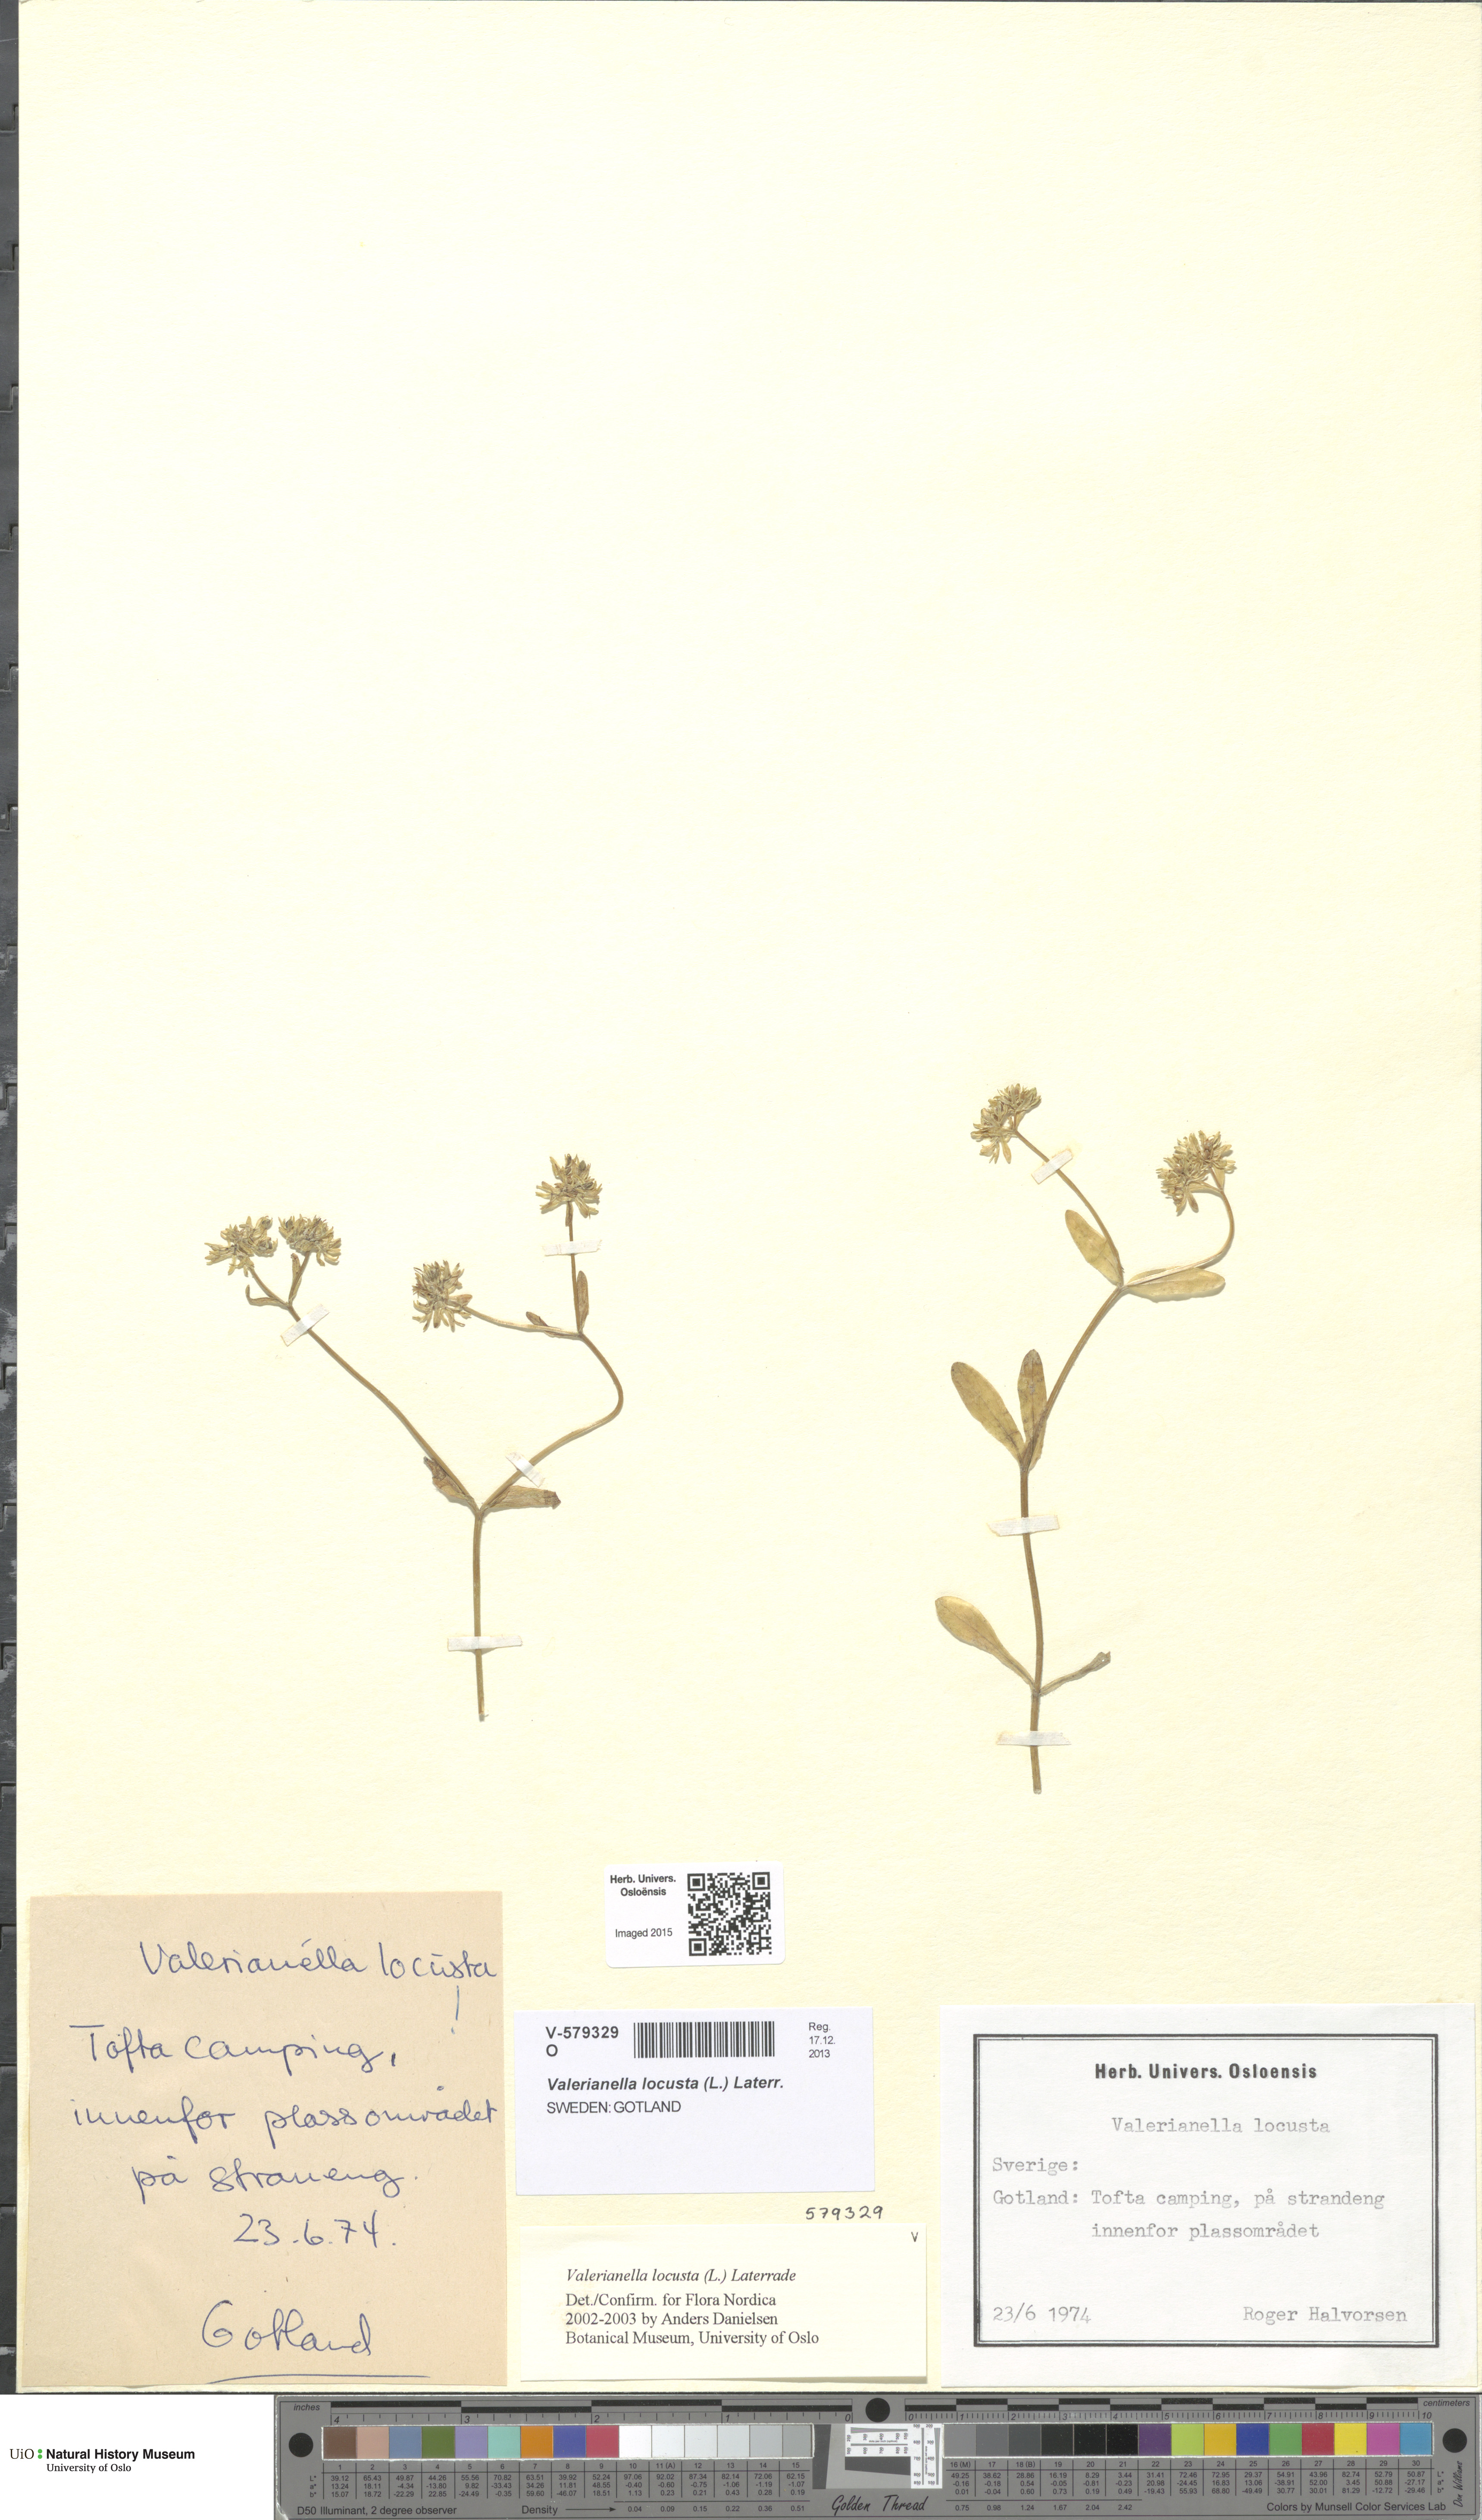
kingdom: Plantae
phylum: Tracheophyta
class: Magnoliopsida
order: Dipsacales
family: Caprifoliaceae
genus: Valerianella
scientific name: Valerianella locusta
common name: Common cornsalad
